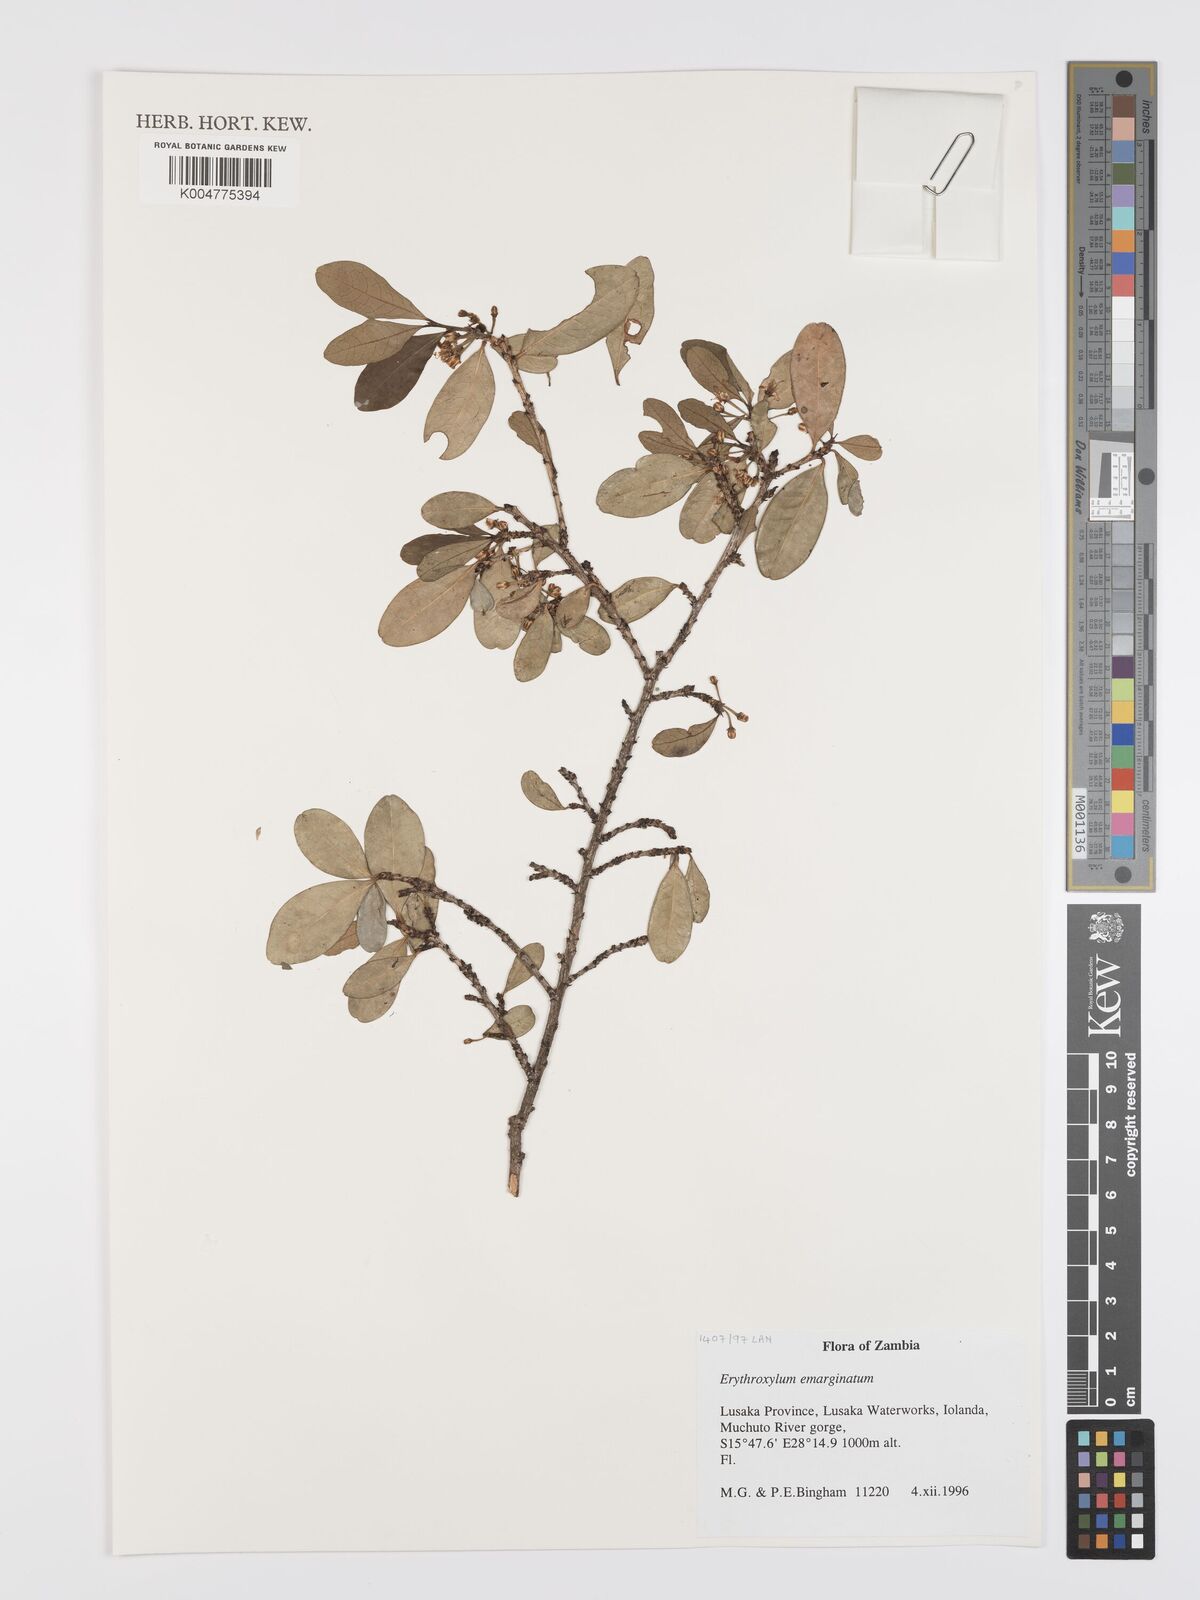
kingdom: Plantae
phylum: Tracheophyta
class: Magnoliopsida
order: Malpighiales
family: Erythroxylaceae
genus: Erythroxylum
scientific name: Erythroxylum emarginatum
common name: African coca-tree
